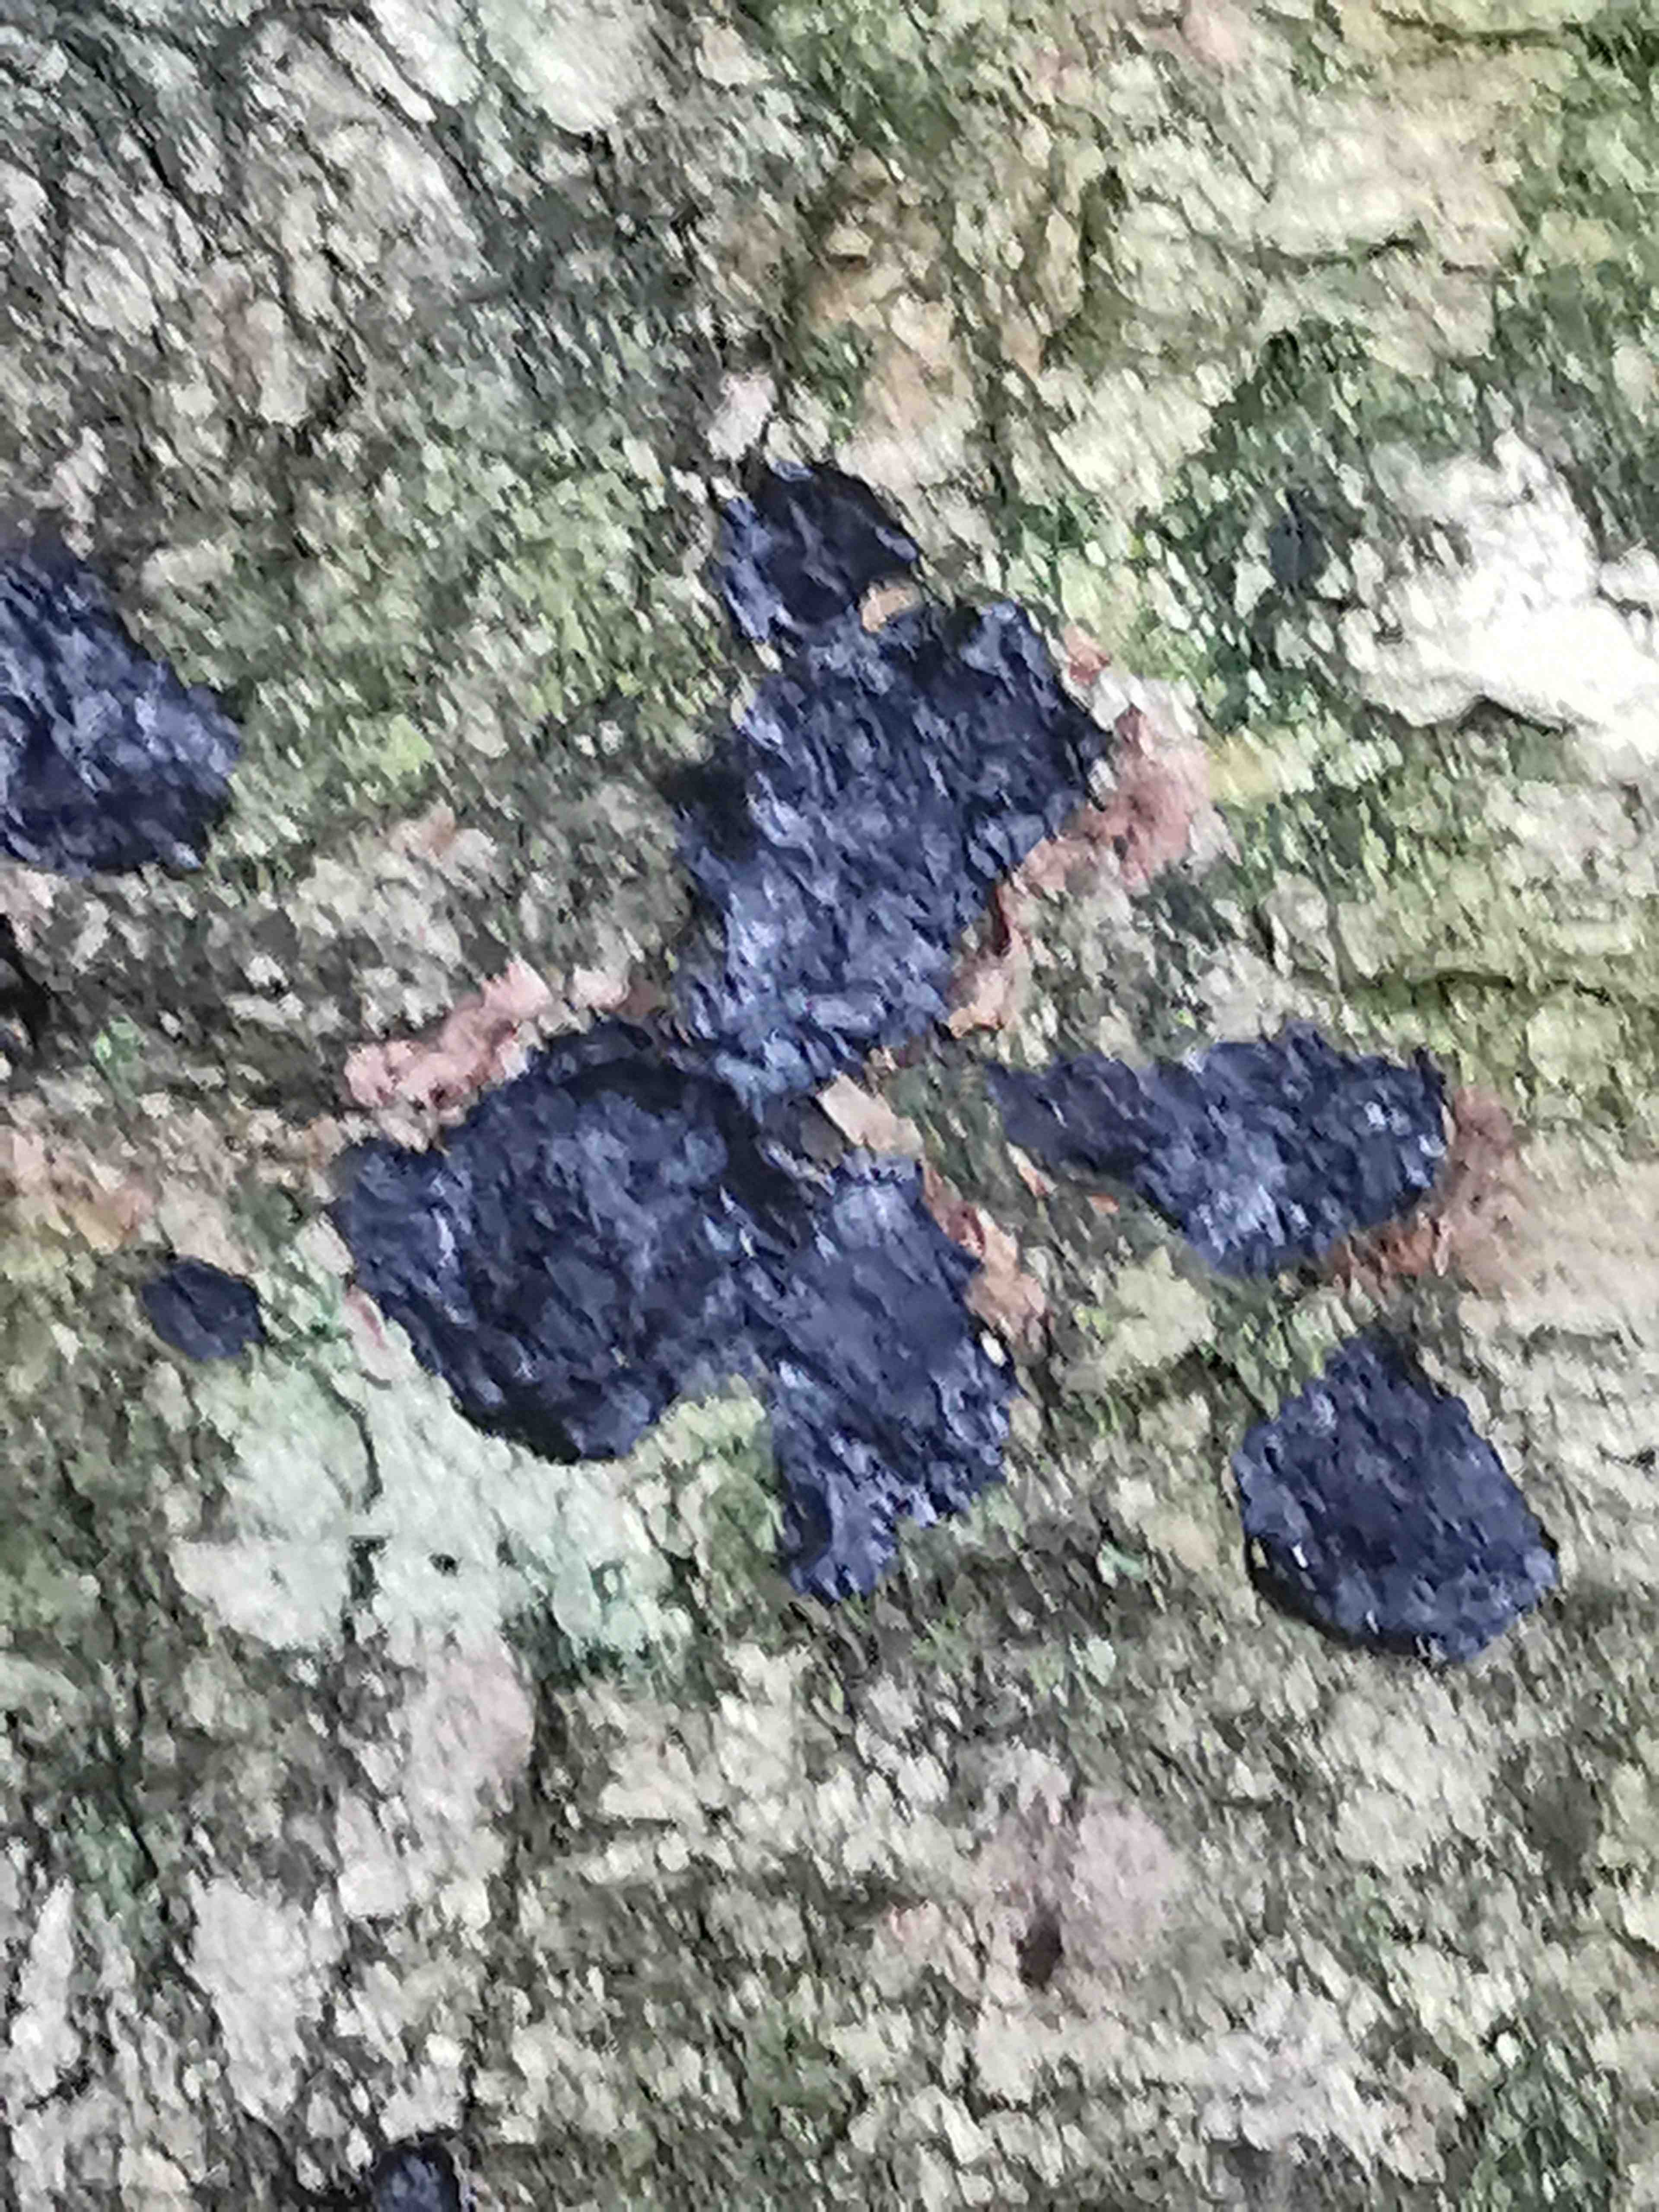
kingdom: Fungi
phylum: Basidiomycota
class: Agaricomycetes
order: Auriculariales
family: Auriculariaceae
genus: Exidia
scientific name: Exidia pithya
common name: gran-bævretop
